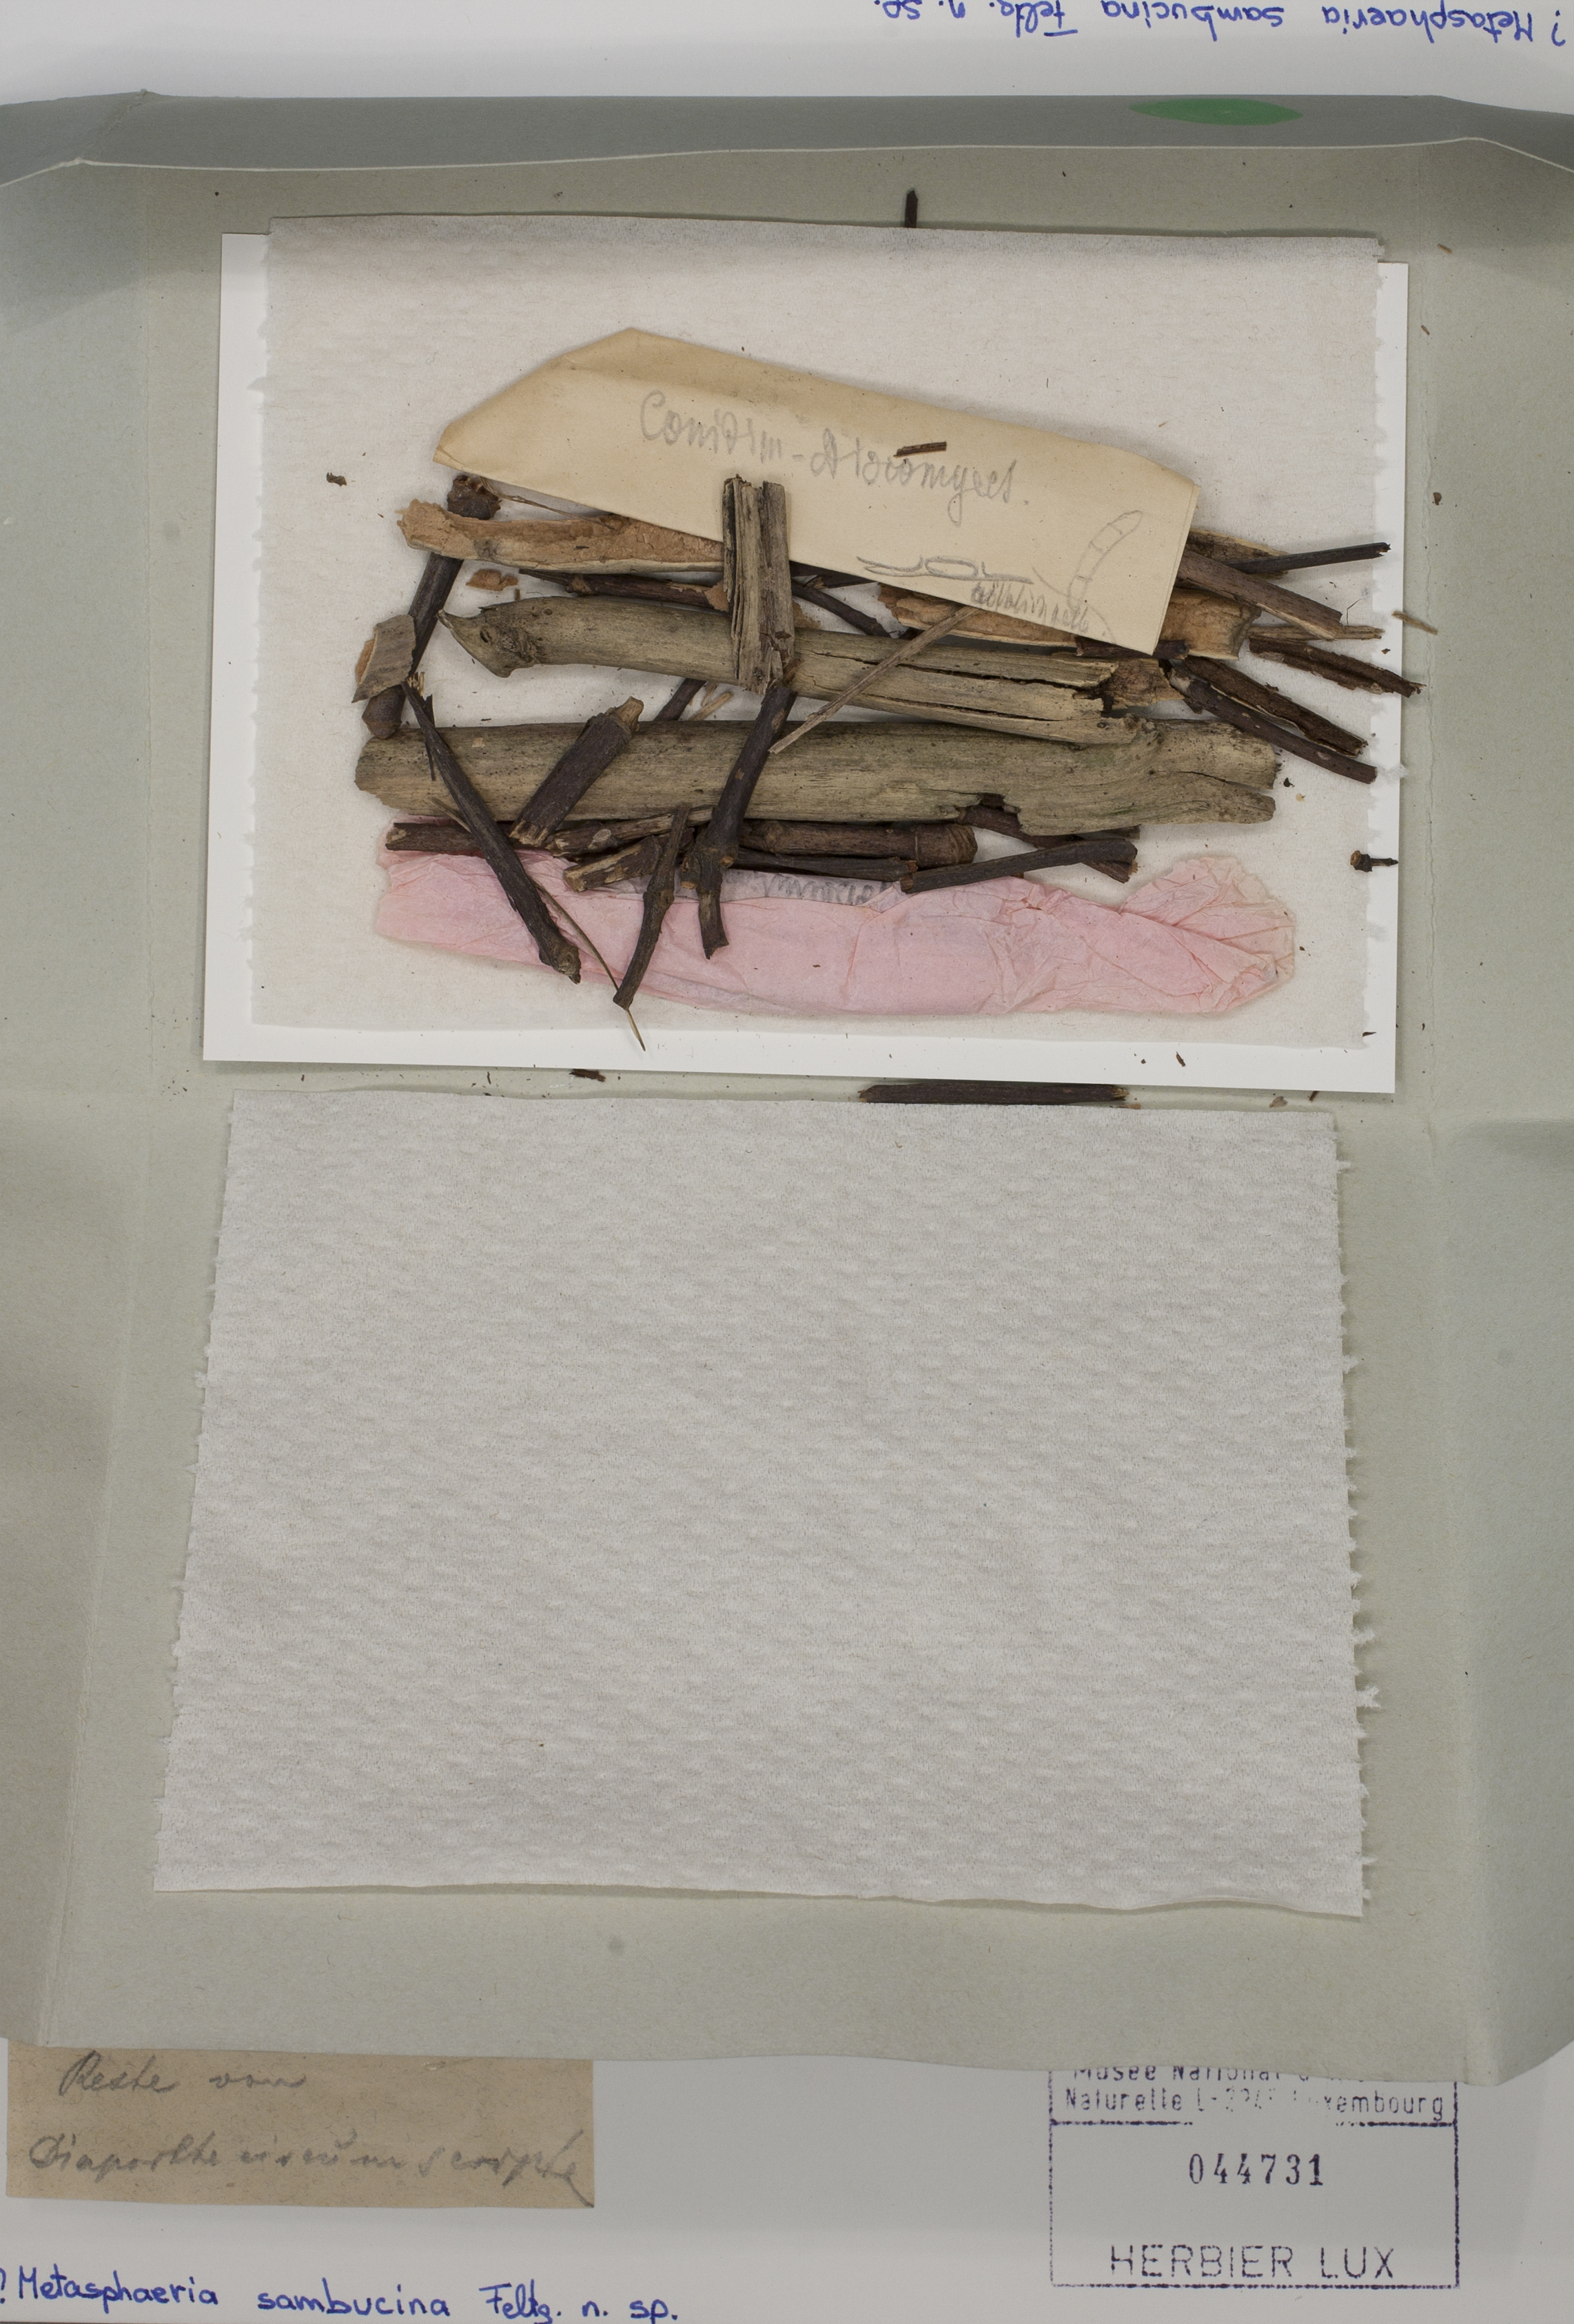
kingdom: Fungi
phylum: Ascomycota
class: Dothideomycetes
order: Dothideales
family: Saccotheciaceae
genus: Metasphaeria
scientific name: Metasphaeria sambucina
